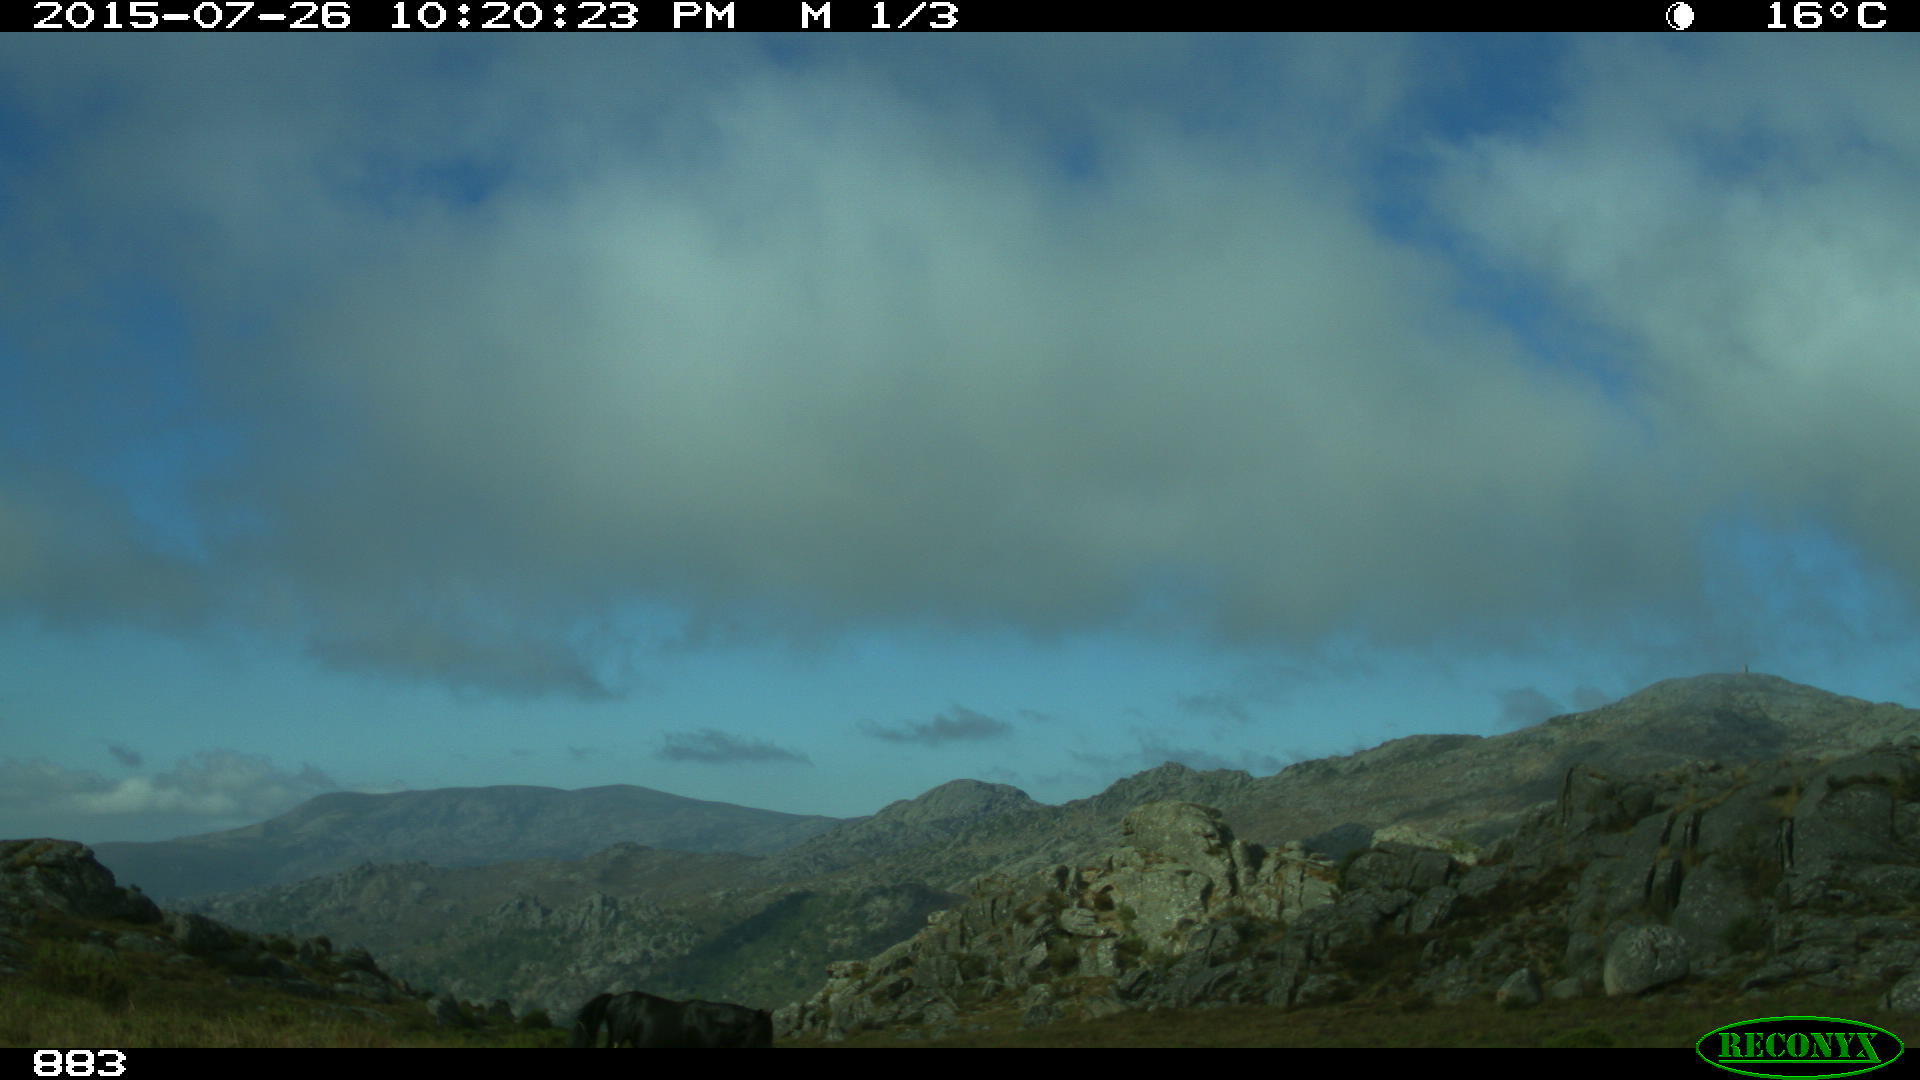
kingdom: Animalia
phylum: Chordata
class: Mammalia
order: Perissodactyla
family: Equidae
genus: Equus
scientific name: Equus caballus
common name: Horse
